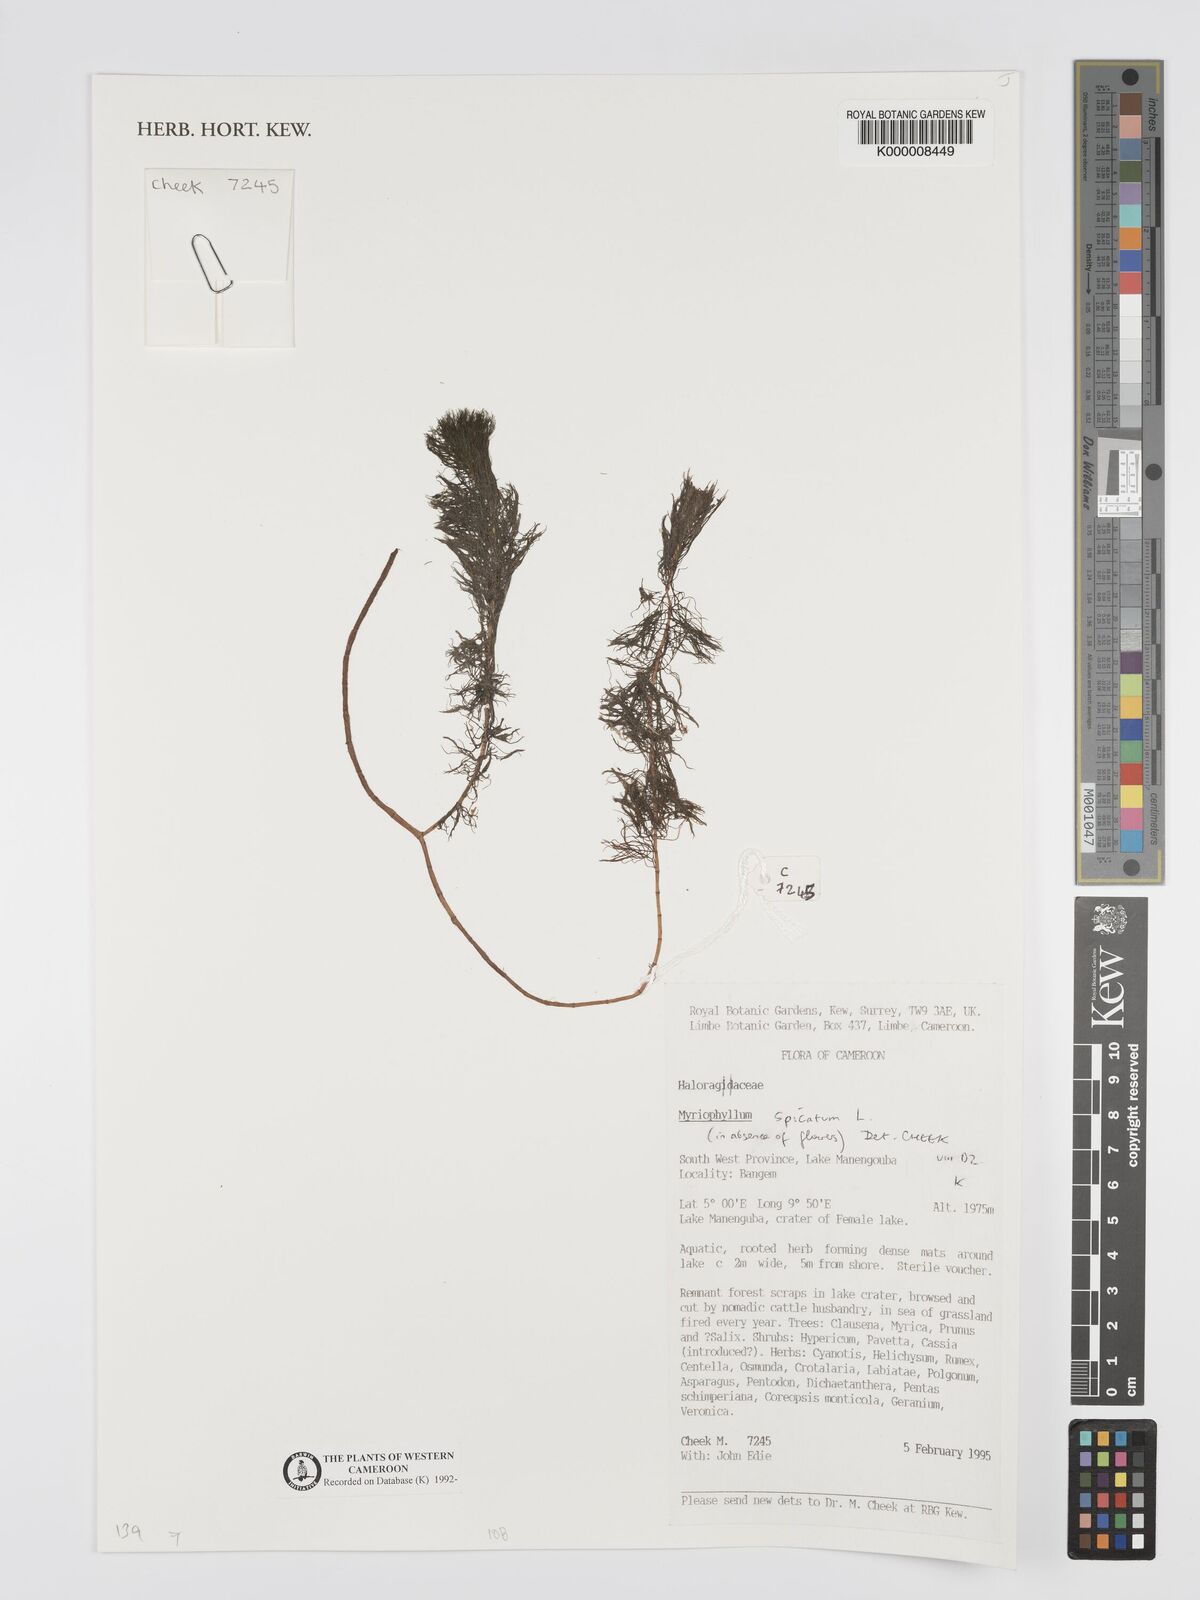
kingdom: Plantae
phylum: Tracheophyta
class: Magnoliopsida
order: Saxifragales
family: Haloragaceae
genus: Myriophyllum
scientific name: Myriophyllum spicatum
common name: Spiked water-milfoil
